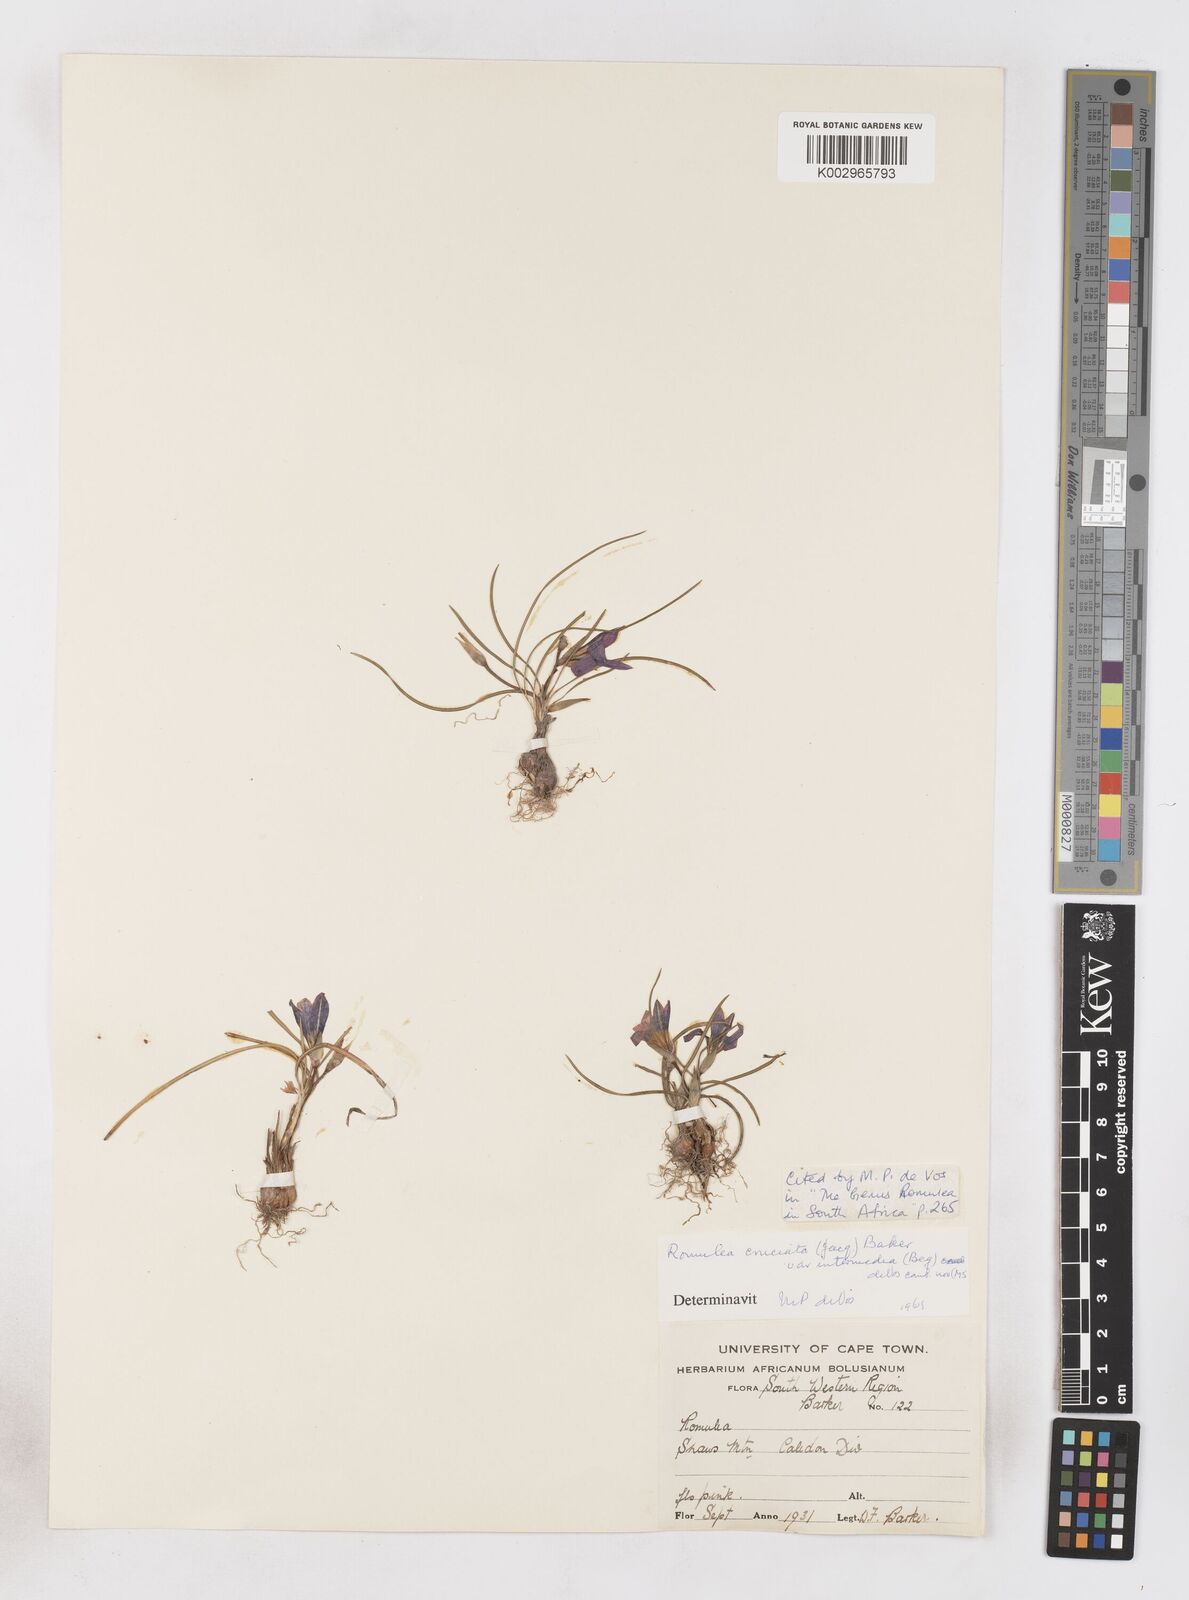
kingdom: Plantae
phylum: Tracheophyta
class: Liliopsida
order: Asparagales
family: Iridaceae
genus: Romulea
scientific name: Romulea cruciata
